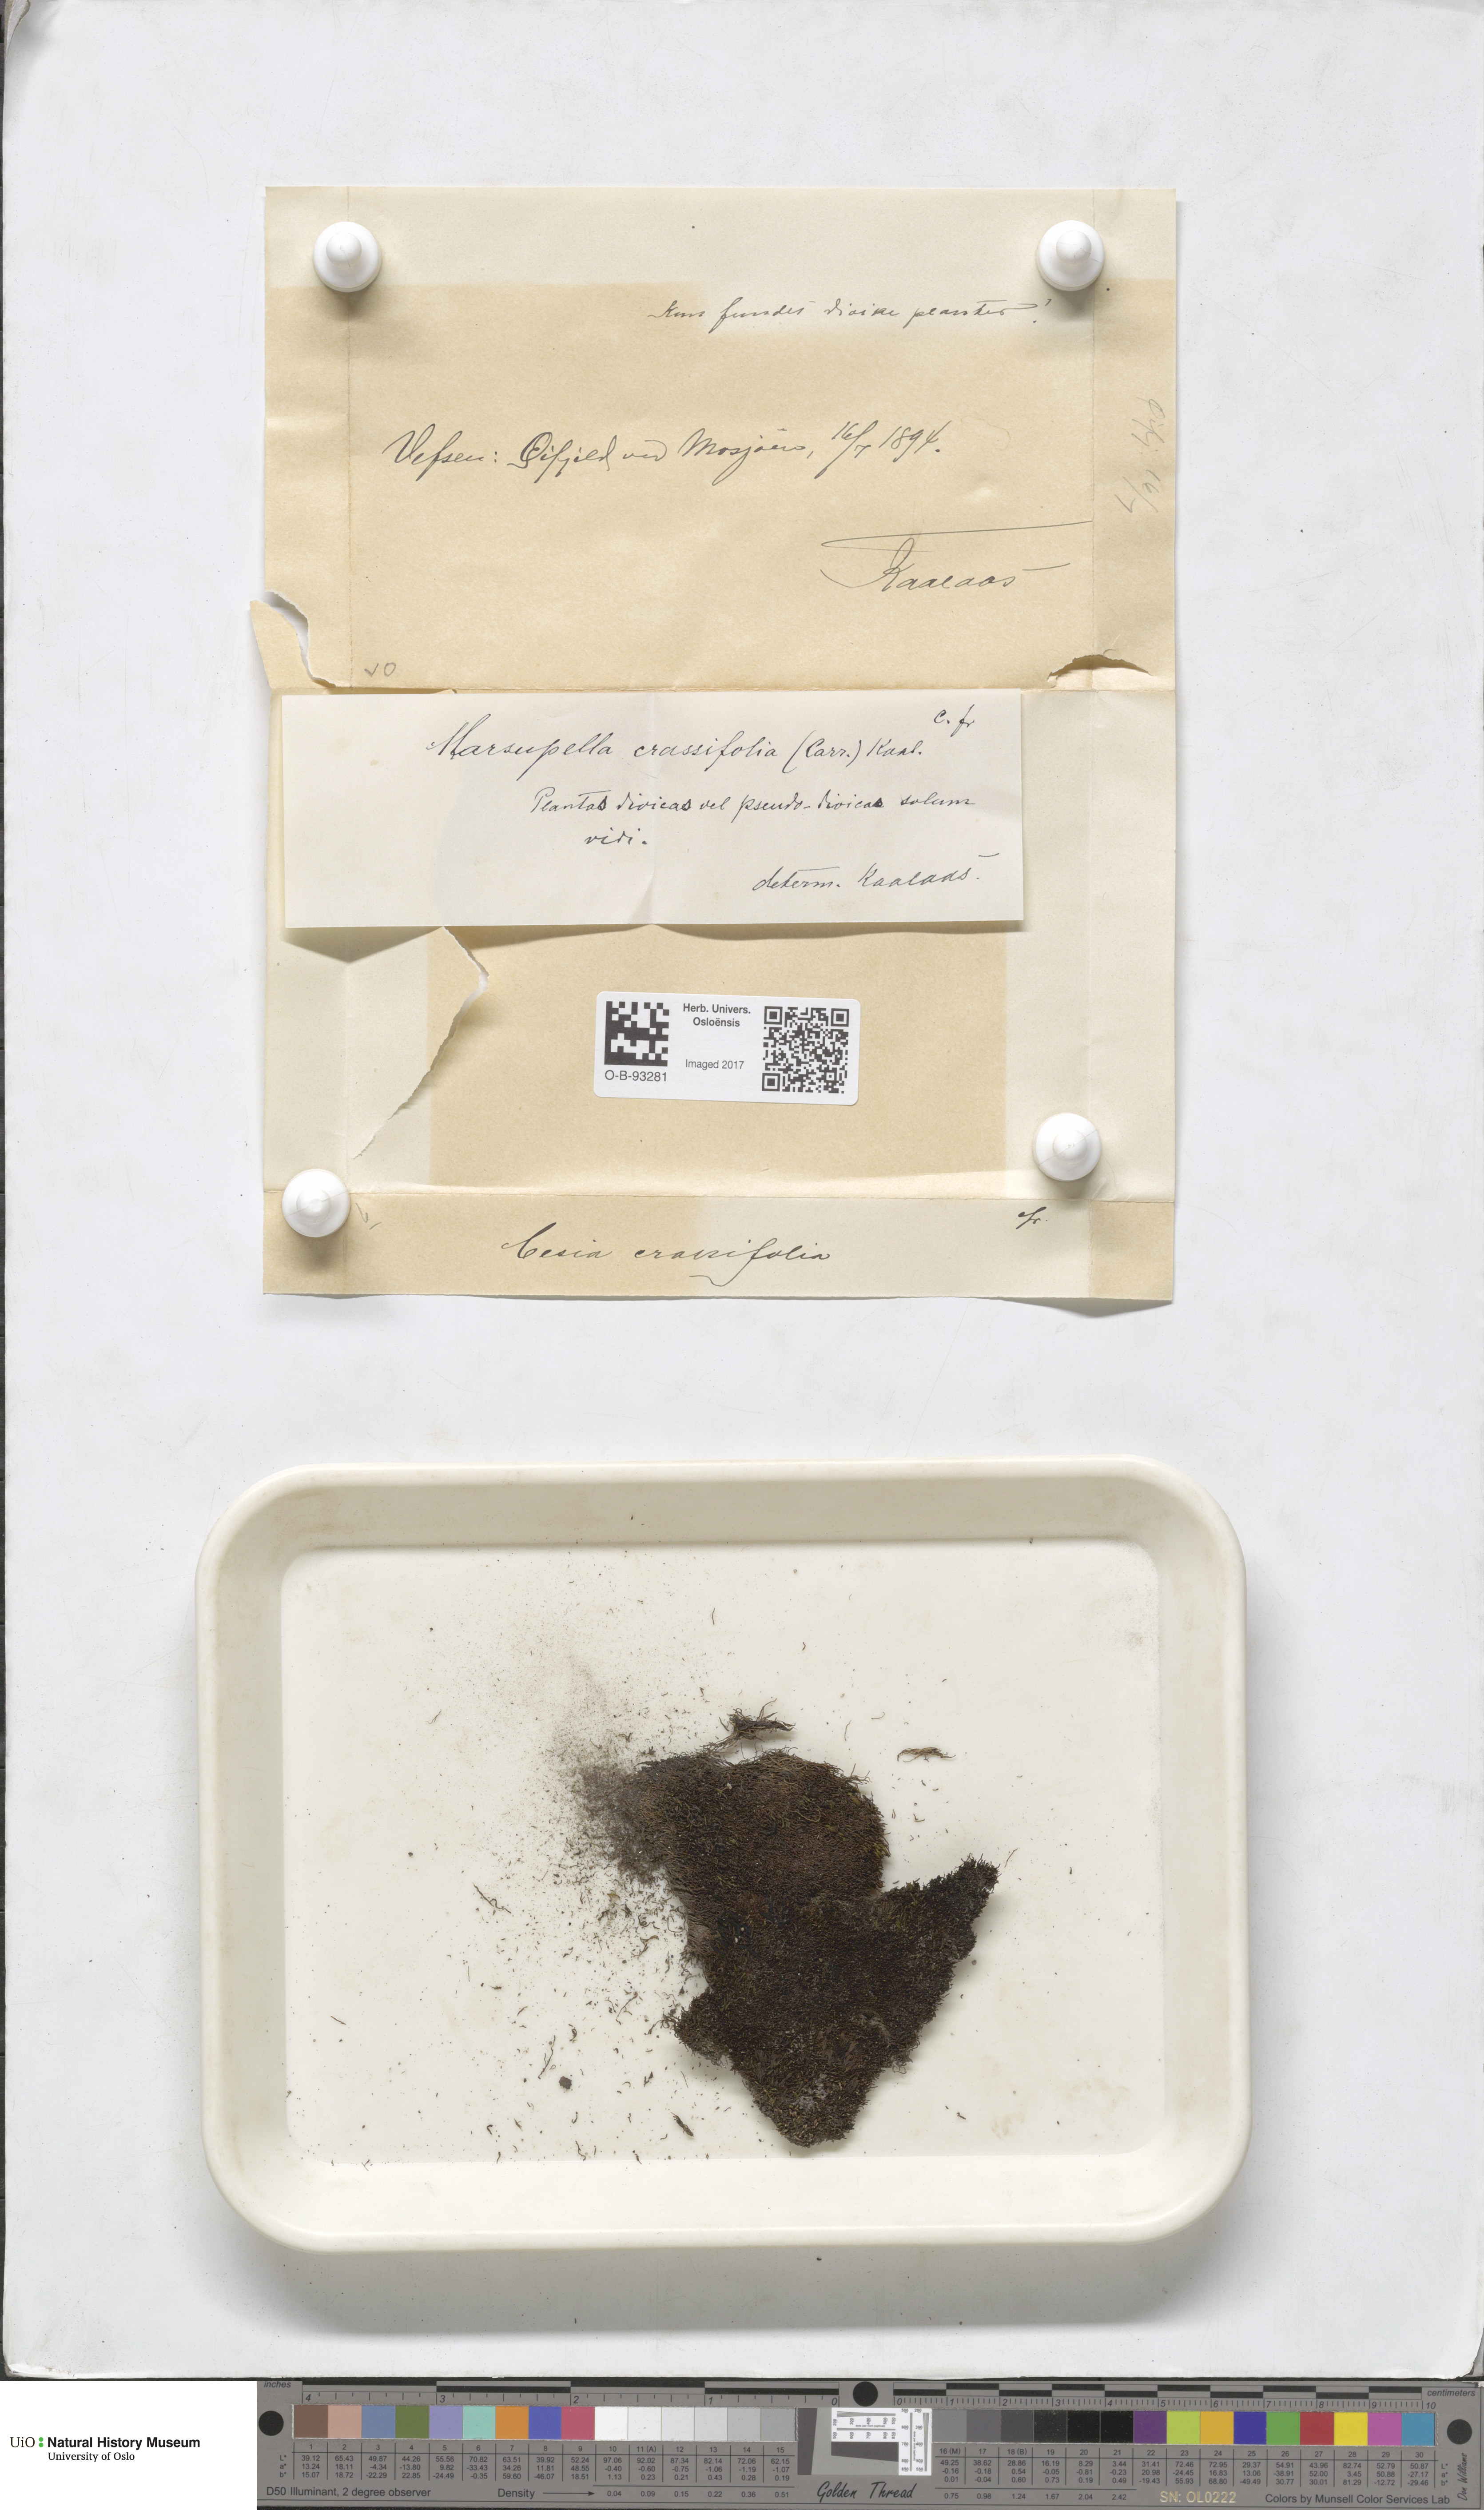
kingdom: Plantae
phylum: Marchantiophyta
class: Jungermanniopsida
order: Jungermanniales
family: Gymnomitriaceae
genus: Gymnomitrion
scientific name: Gymnomitrion brevissimum
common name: Snow rustwort
